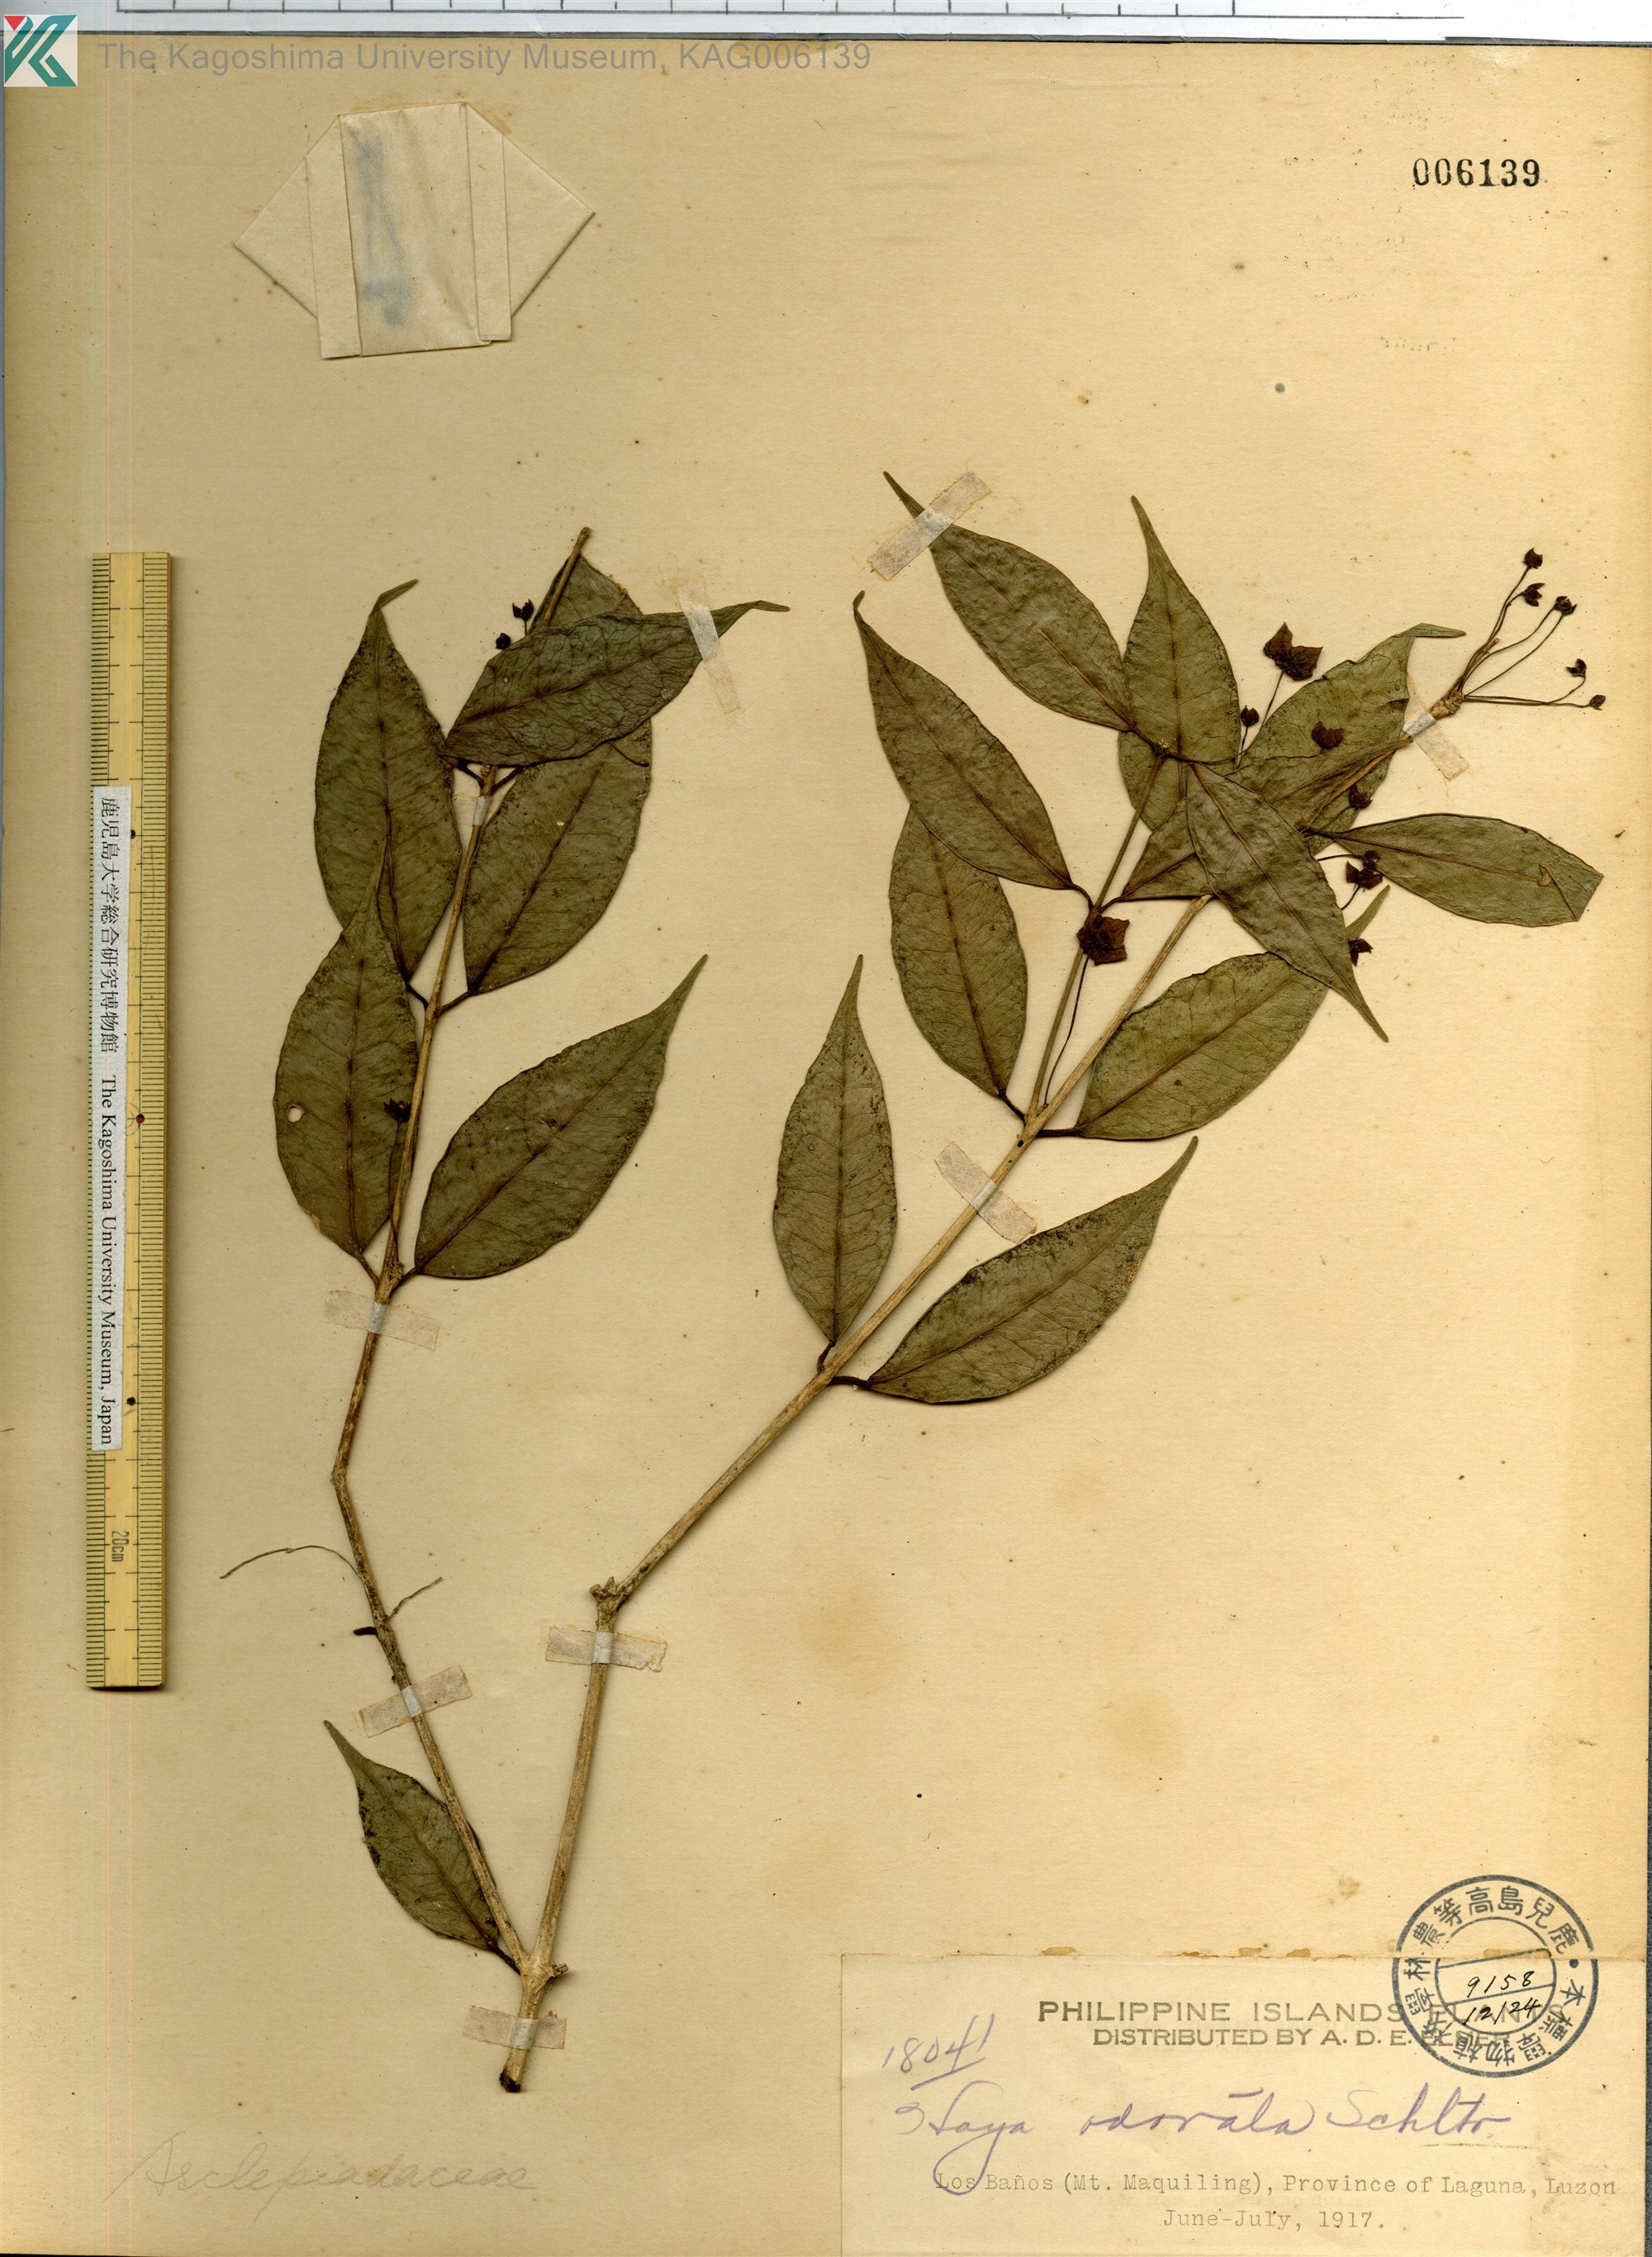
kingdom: Plantae
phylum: Tracheophyta
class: Magnoliopsida
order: Gentianales
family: Apocynaceae
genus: Hoya
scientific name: Hoya odorata
